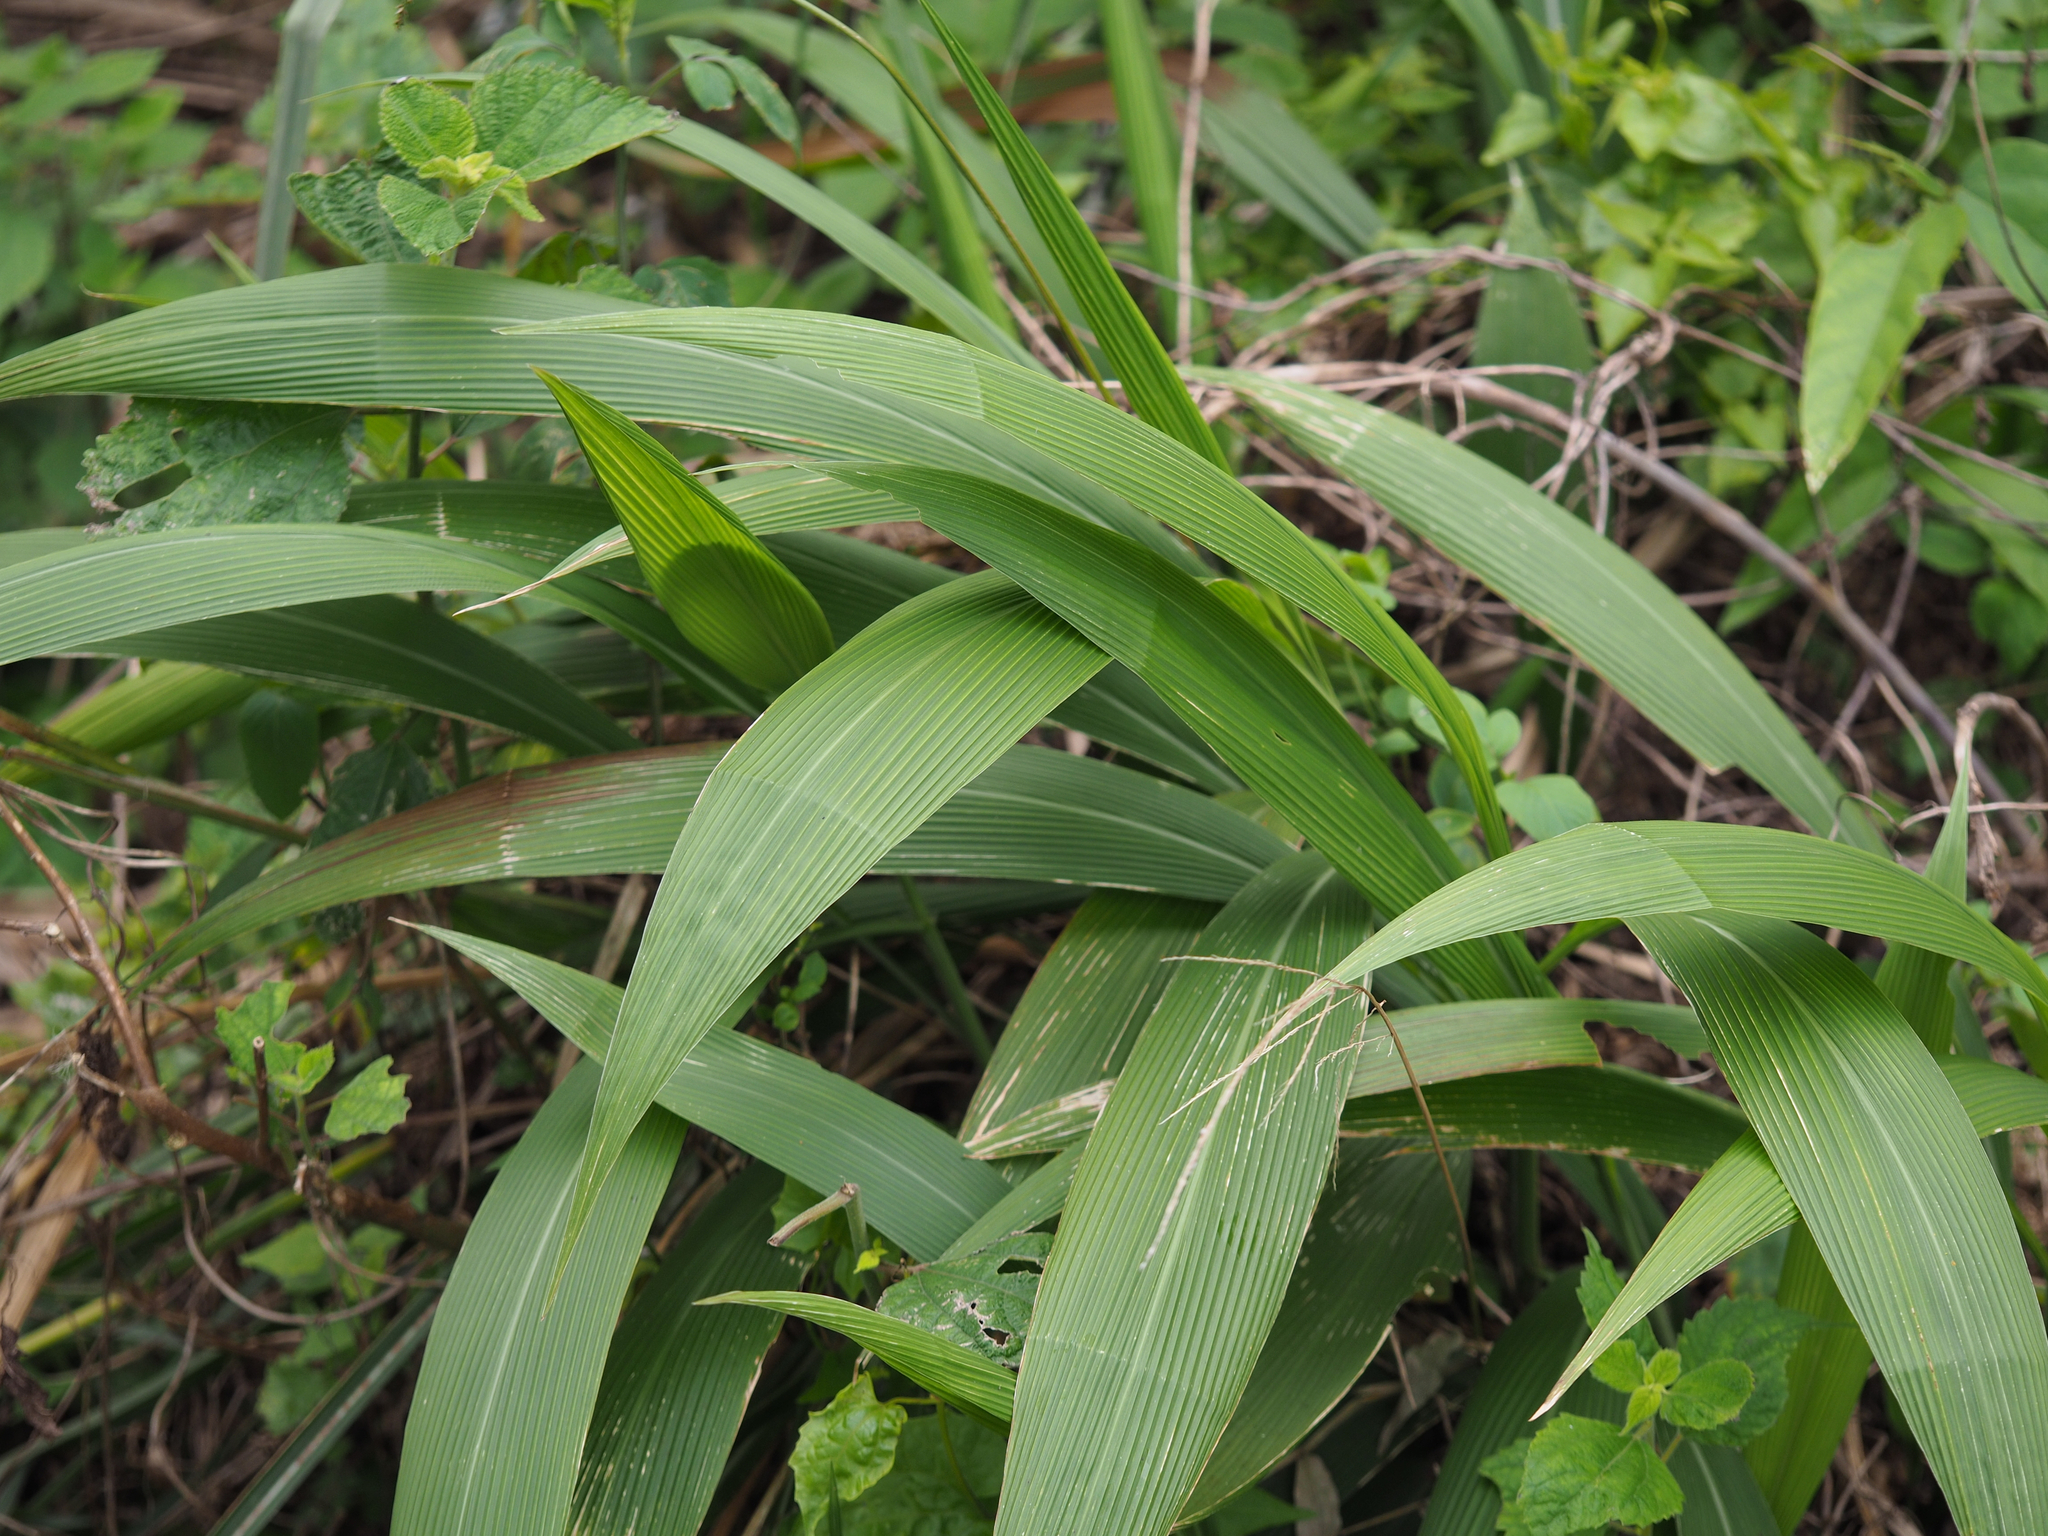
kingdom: Plantae
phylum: Tracheophyta
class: Liliopsida
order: Poales
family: Poaceae
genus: Setaria
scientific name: Setaria palmifolia
